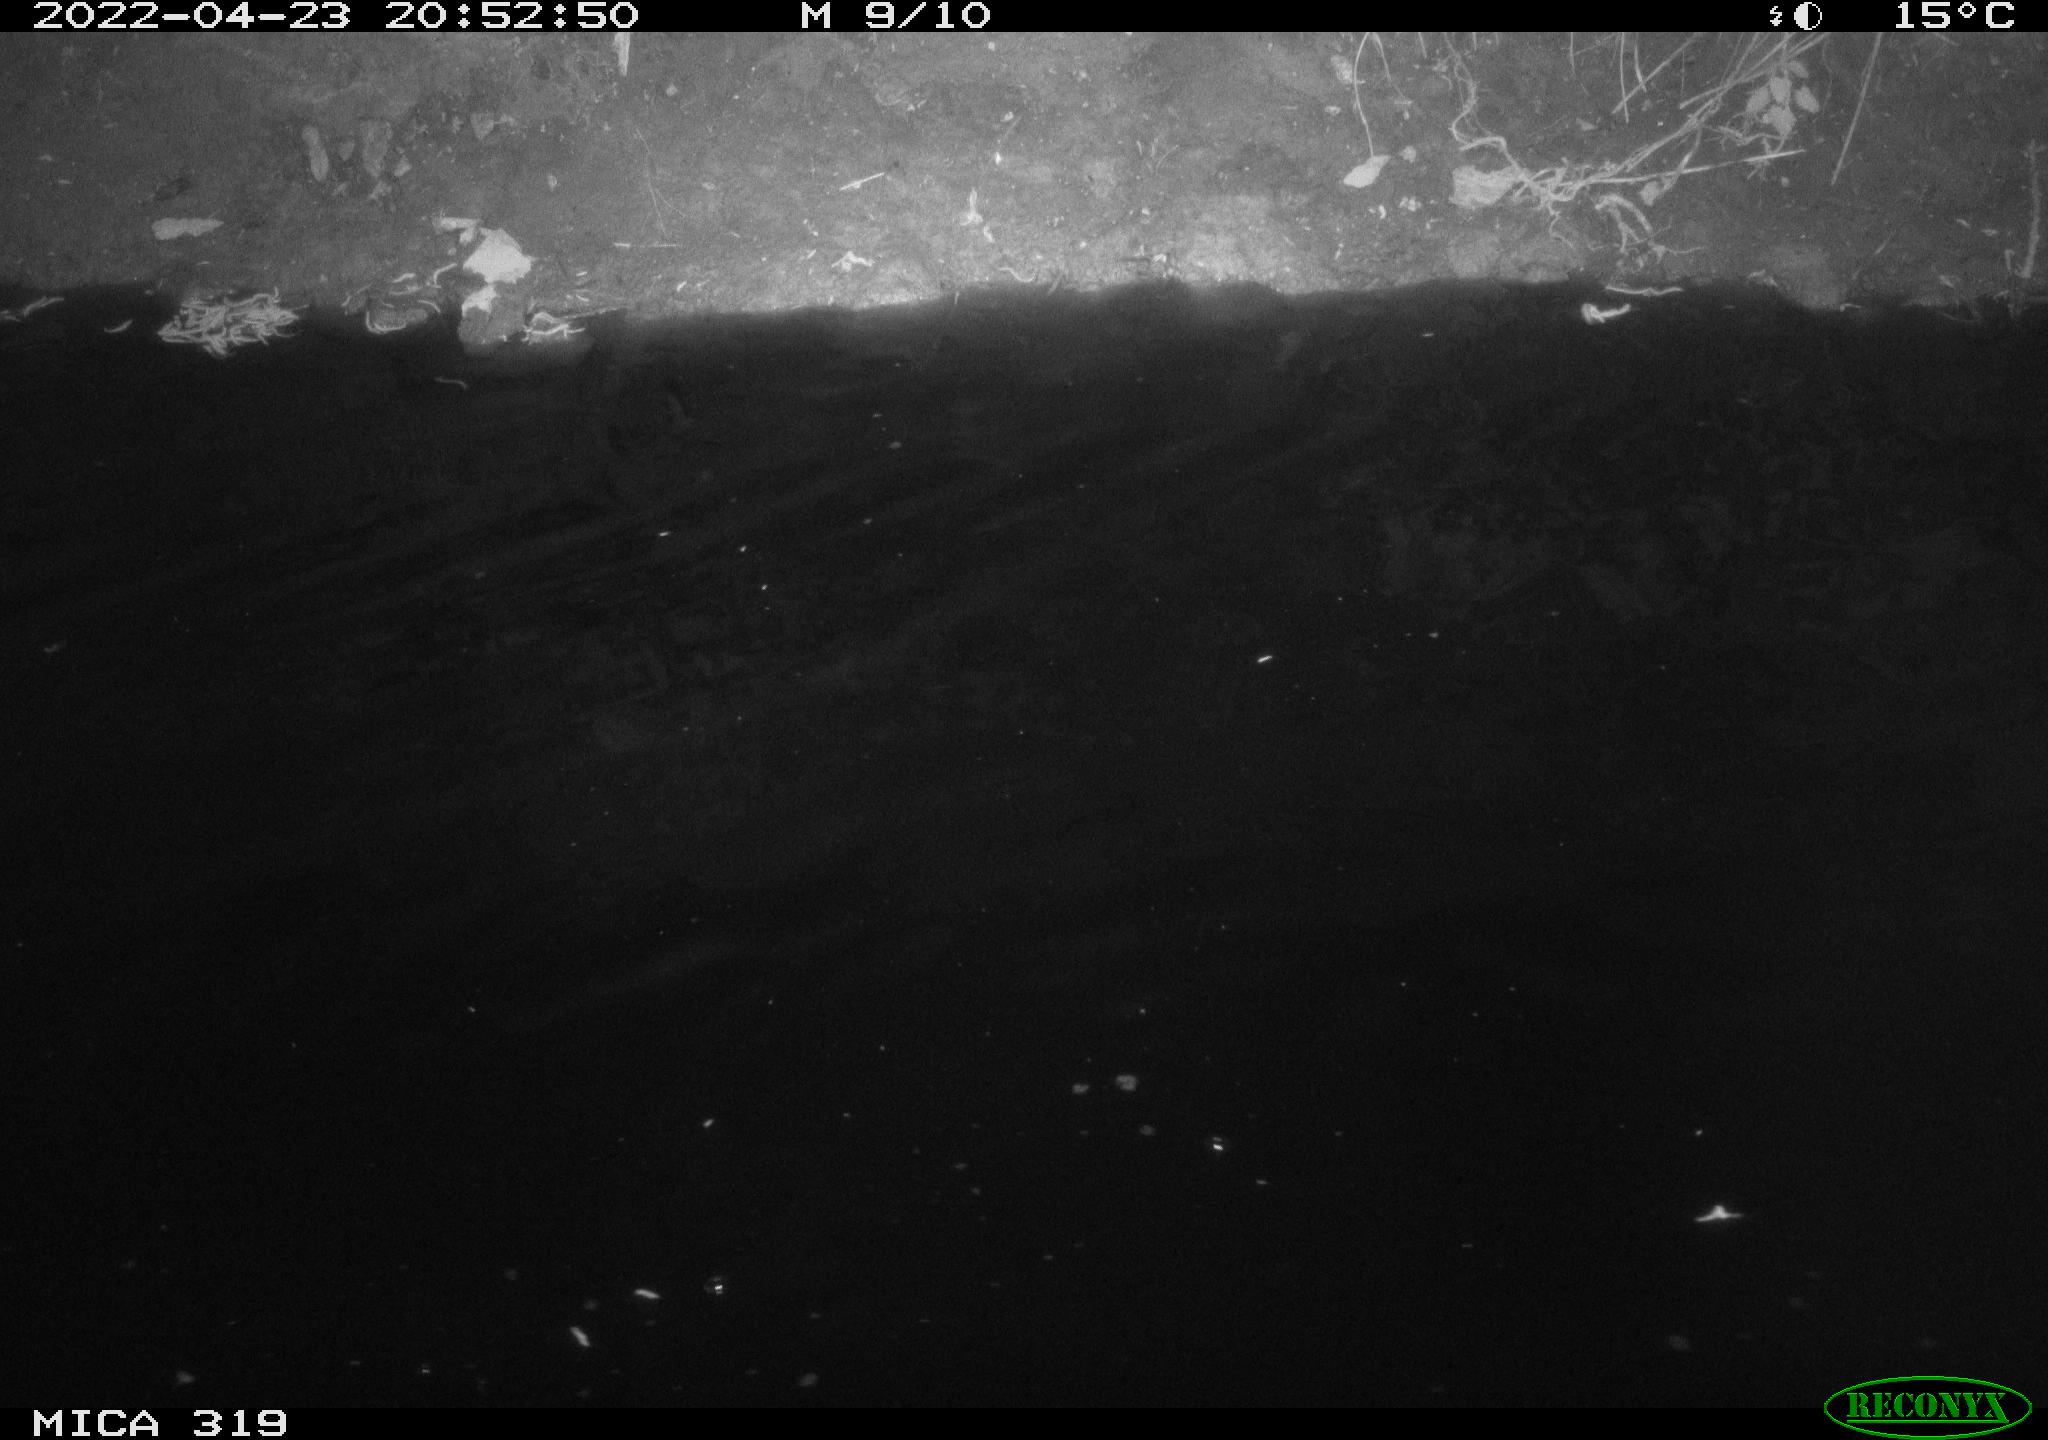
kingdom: Animalia
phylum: Chordata
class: Aves
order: Anseriformes
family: Anatidae
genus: Anas
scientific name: Anas platyrhynchos
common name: Mallard
